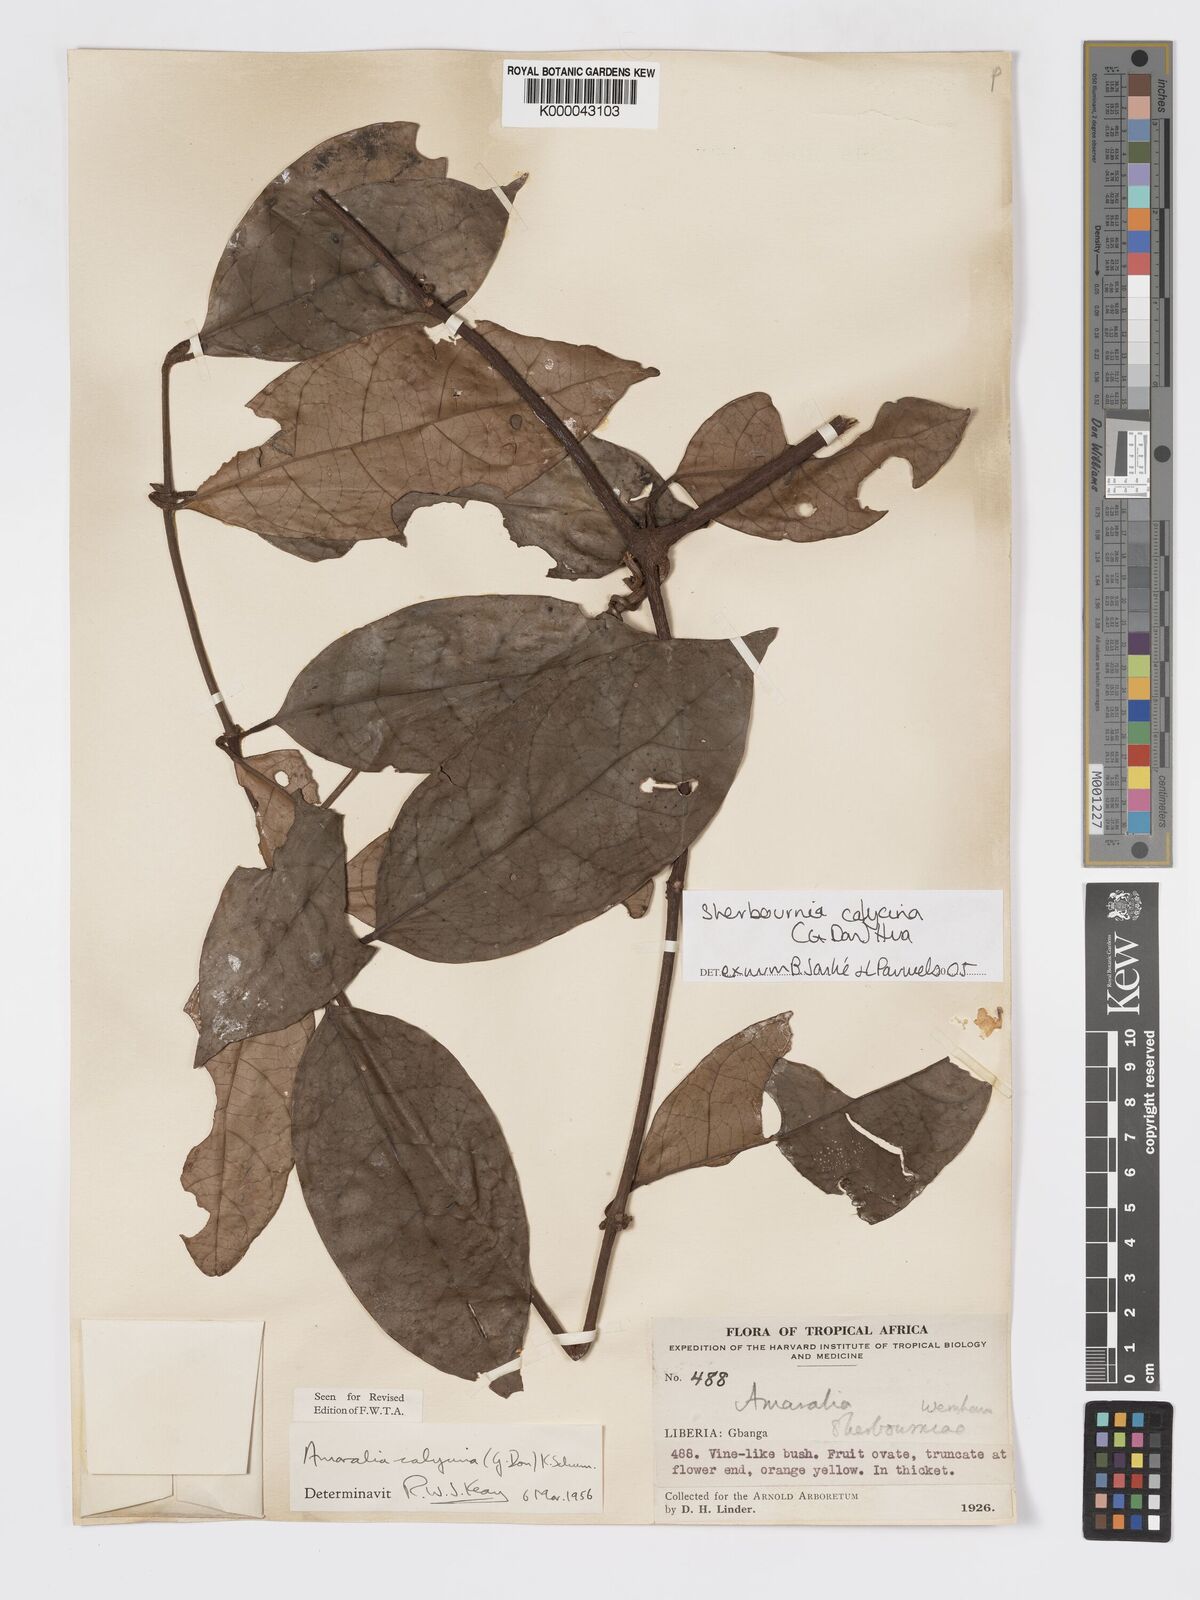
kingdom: Plantae
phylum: Tracheophyta
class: Magnoliopsida
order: Gentianales
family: Rubiaceae
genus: Sherbournia
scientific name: Sherbournia calycina
